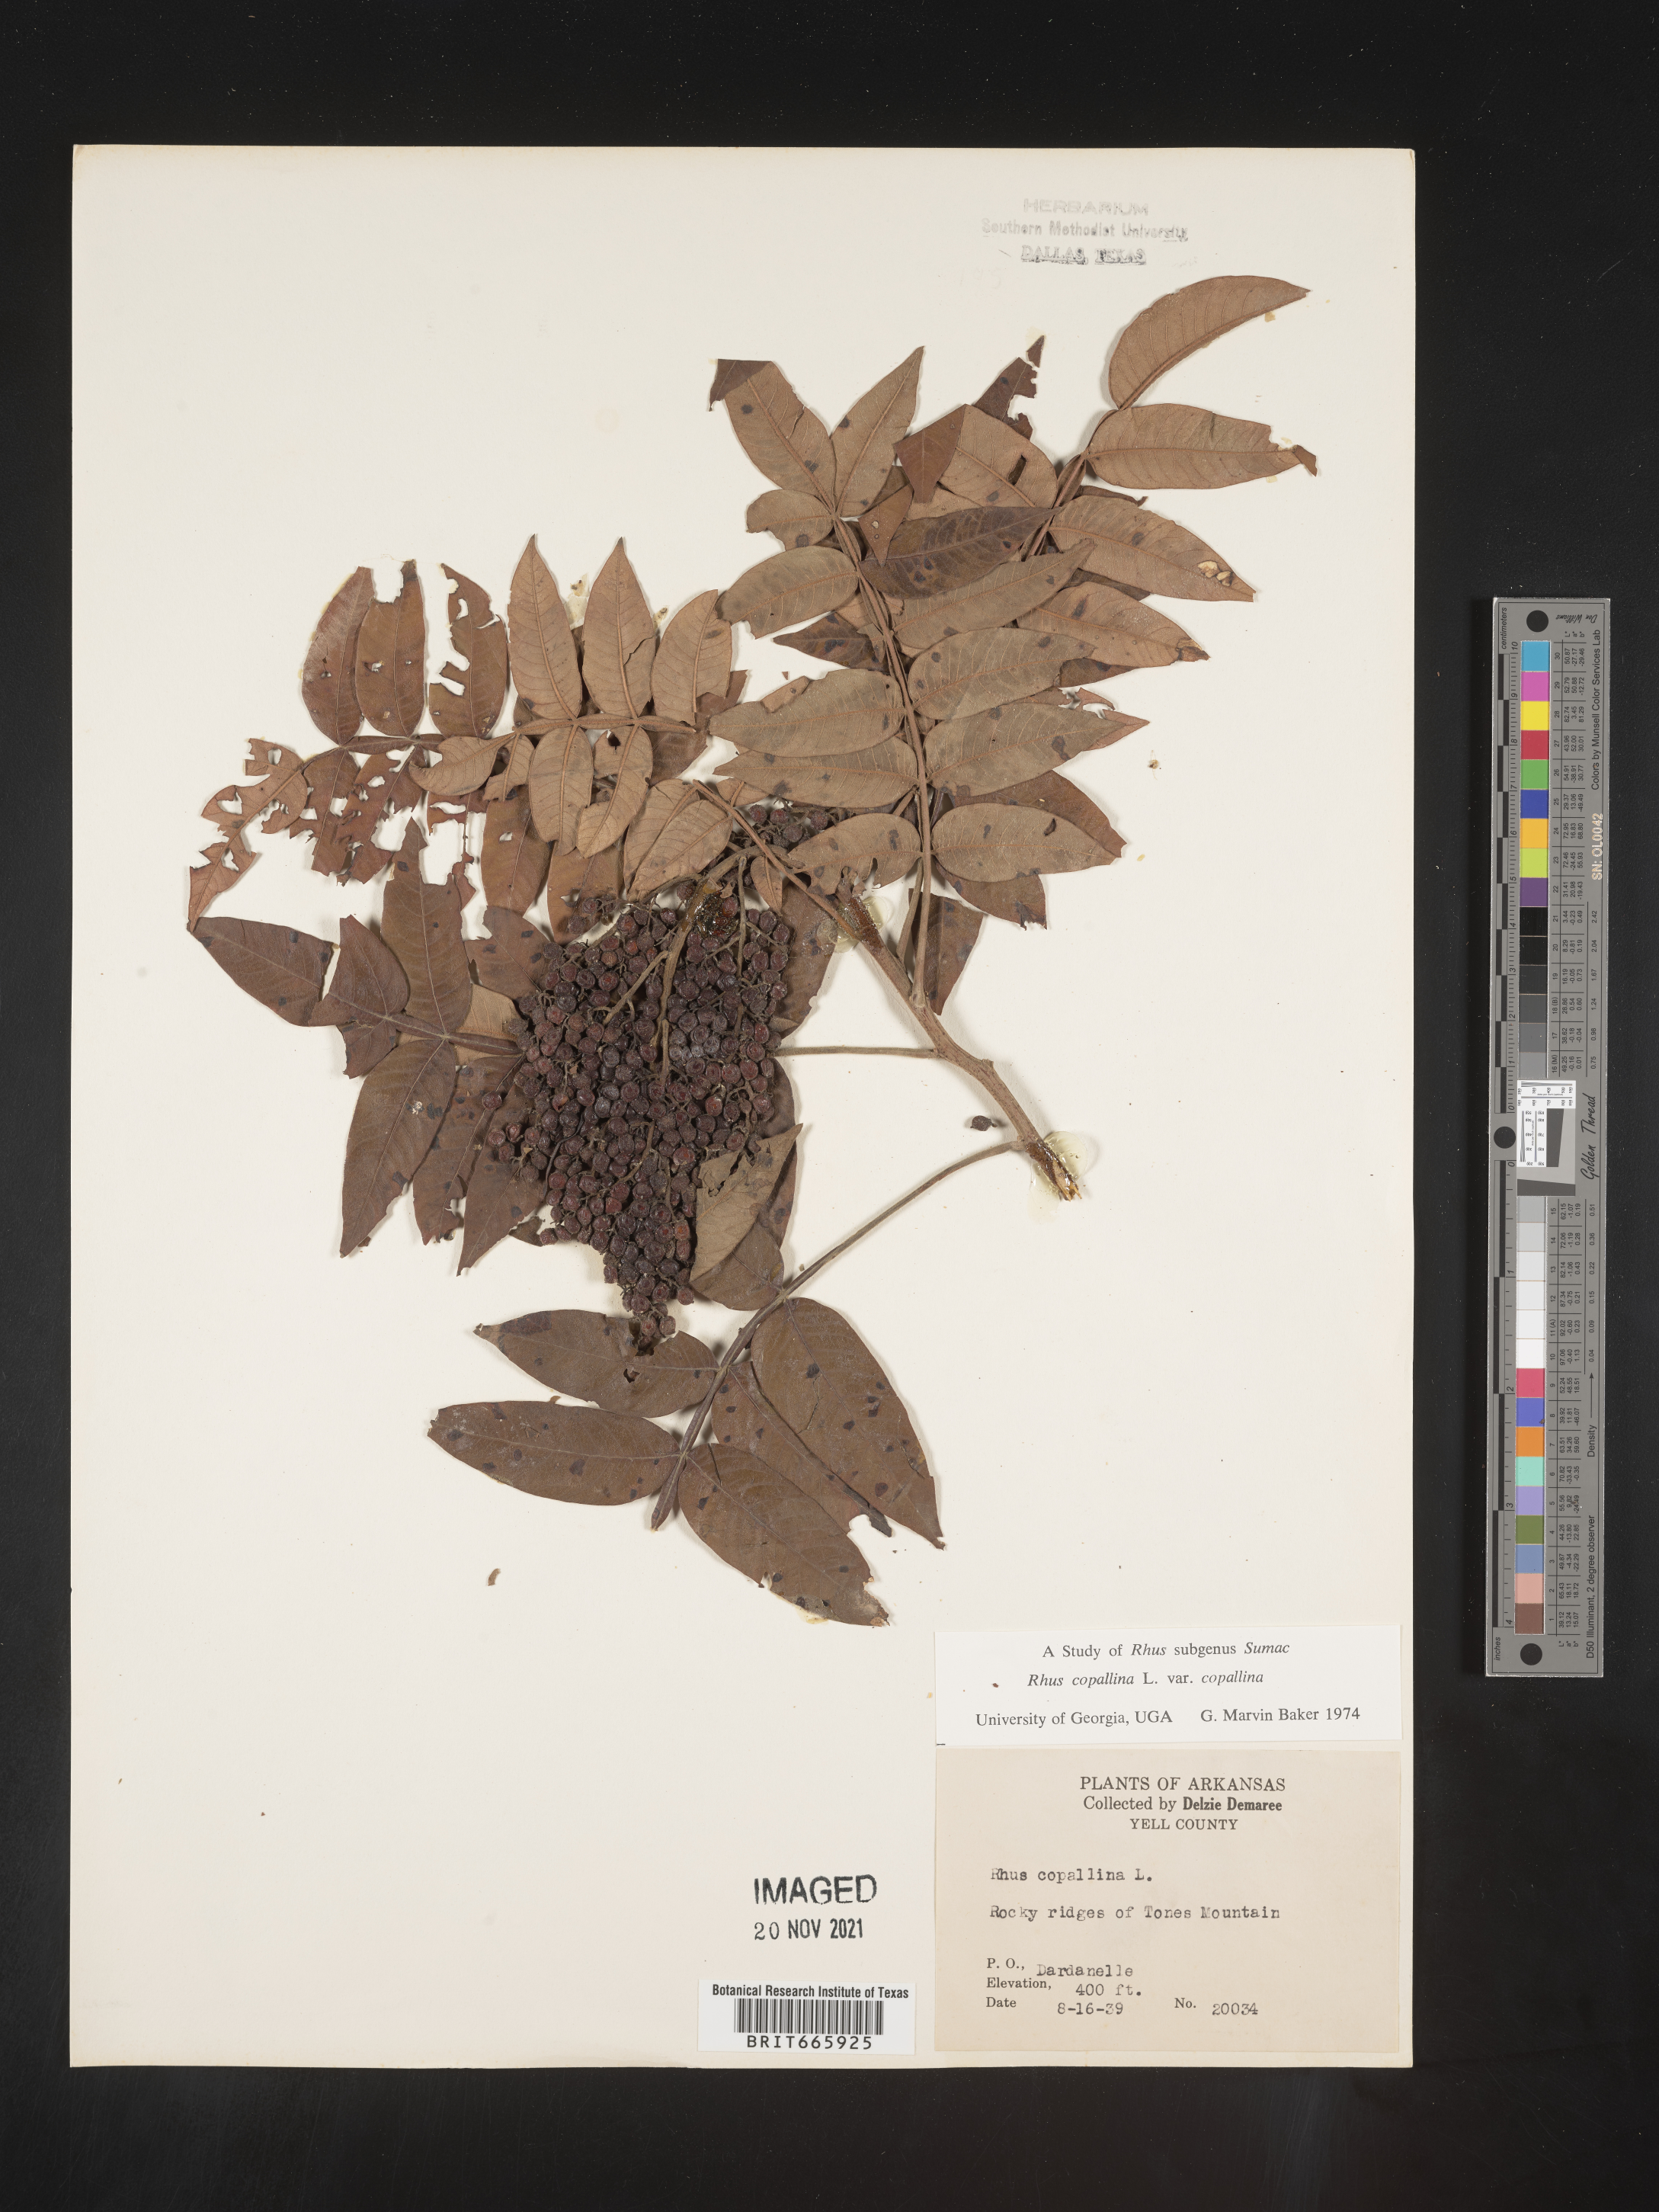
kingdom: Plantae
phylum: Tracheophyta
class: Magnoliopsida
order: Sapindales
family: Anacardiaceae
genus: Rhus
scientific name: Rhus copallina
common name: Shining sumac
